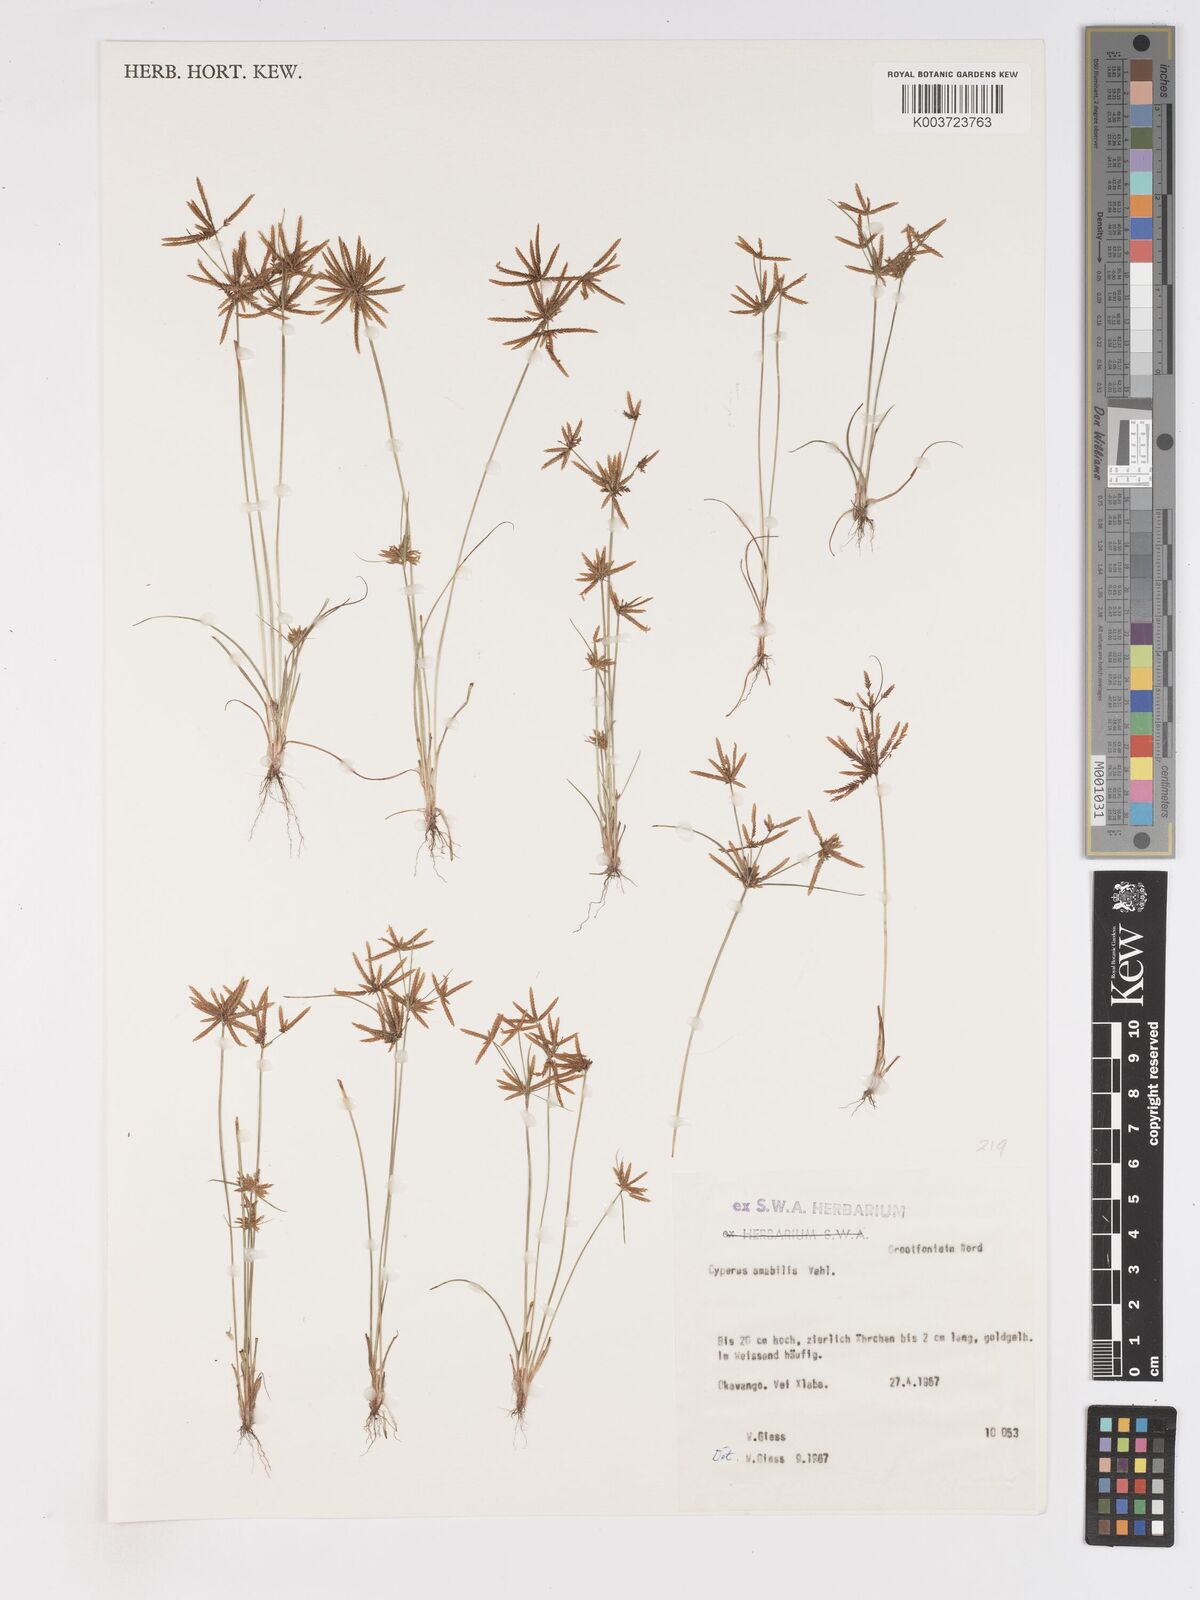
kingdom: Plantae
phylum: Tracheophyta
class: Liliopsida
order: Poales
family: Cyperaceae
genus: Cyperus
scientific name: Cyperus amabilis
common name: Foothill flat sedge
